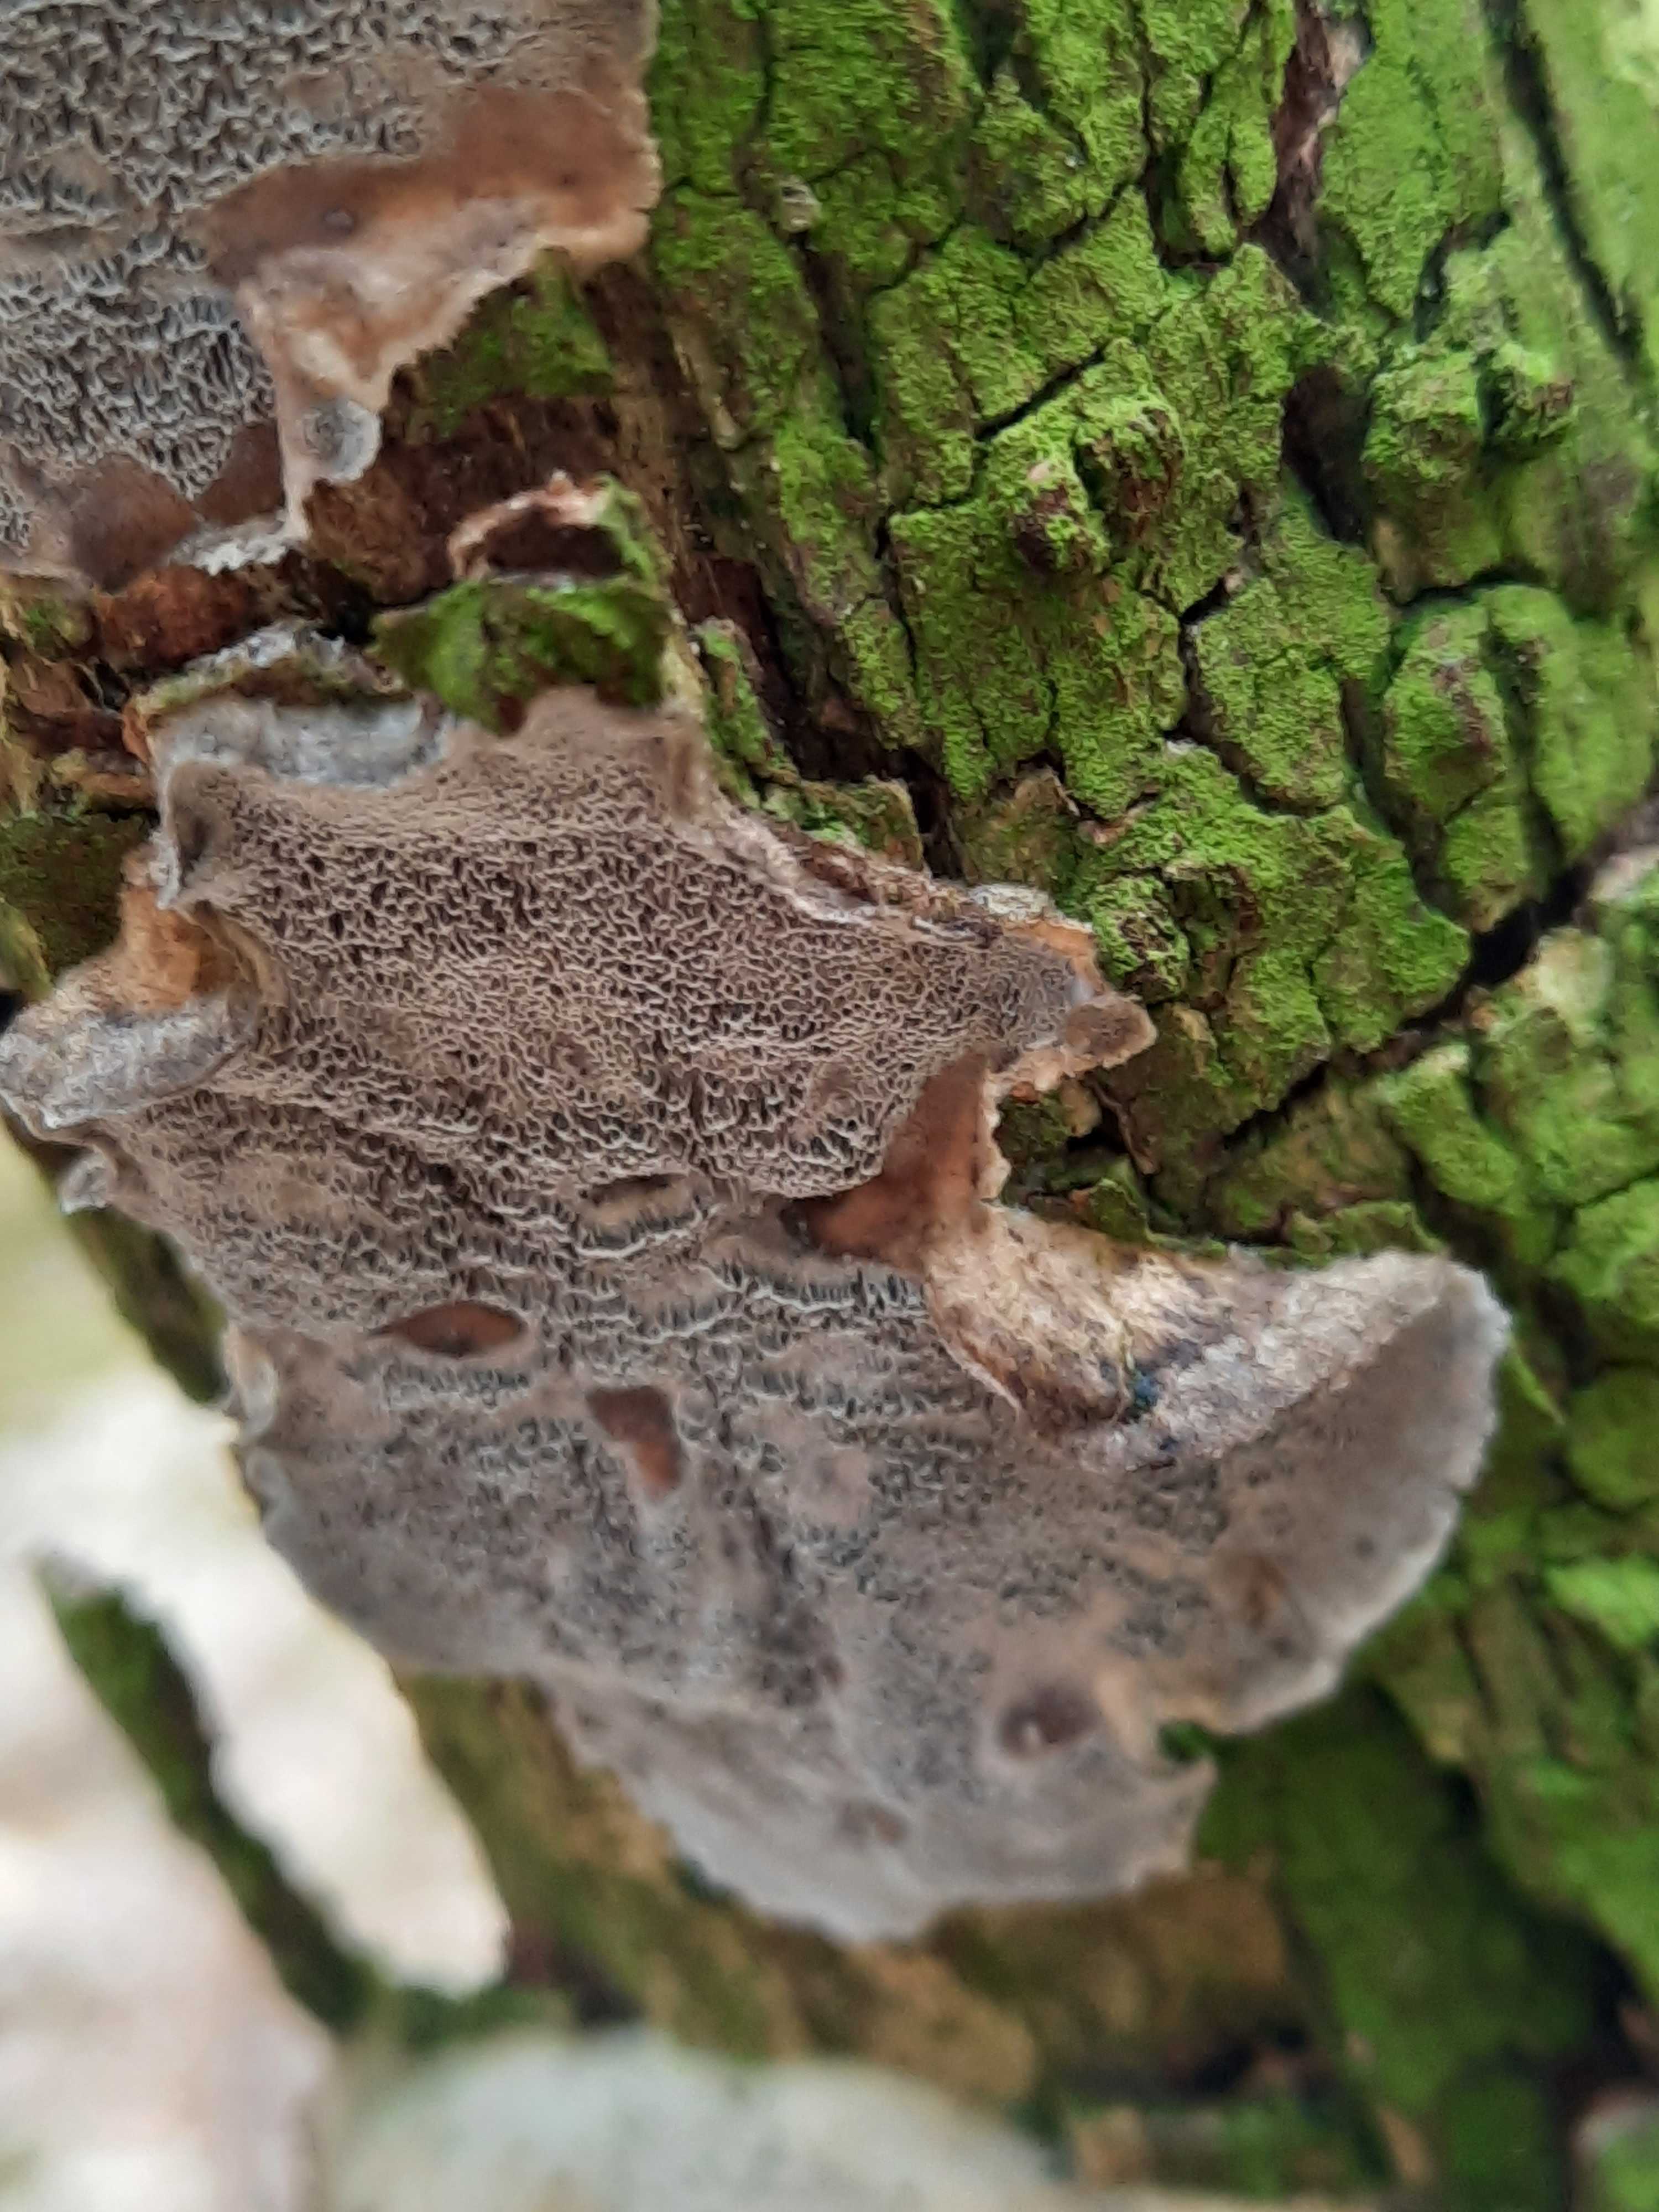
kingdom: Fungi
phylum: Basidiomycota
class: Agaricomycetes
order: Polyporales
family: Phanerochaetaceae
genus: Bjerkandera
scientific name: Bjerkandera adusta
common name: sveden sodporesvamp
